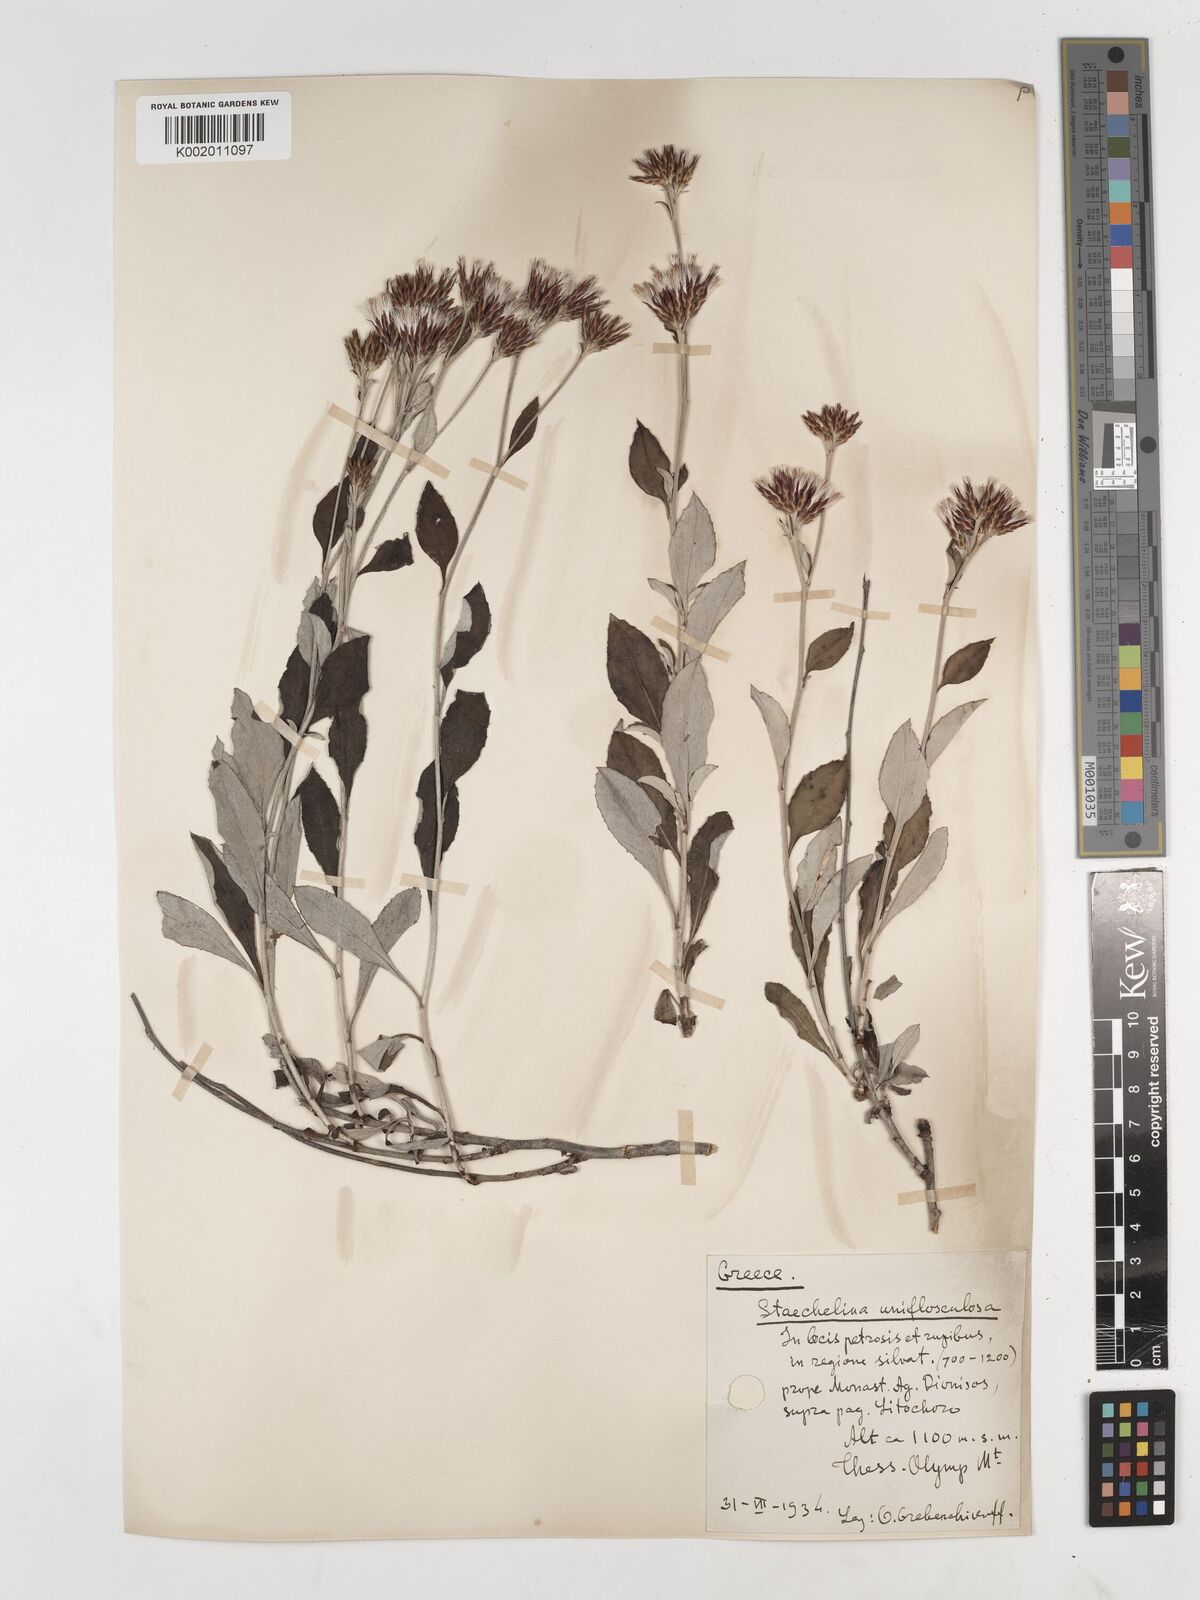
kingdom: Plantae
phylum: Tracheophyta
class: Magnoliopsida
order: Asterales
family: Asteraceae
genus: Staehelina
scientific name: Staehelina uniflosculosa
